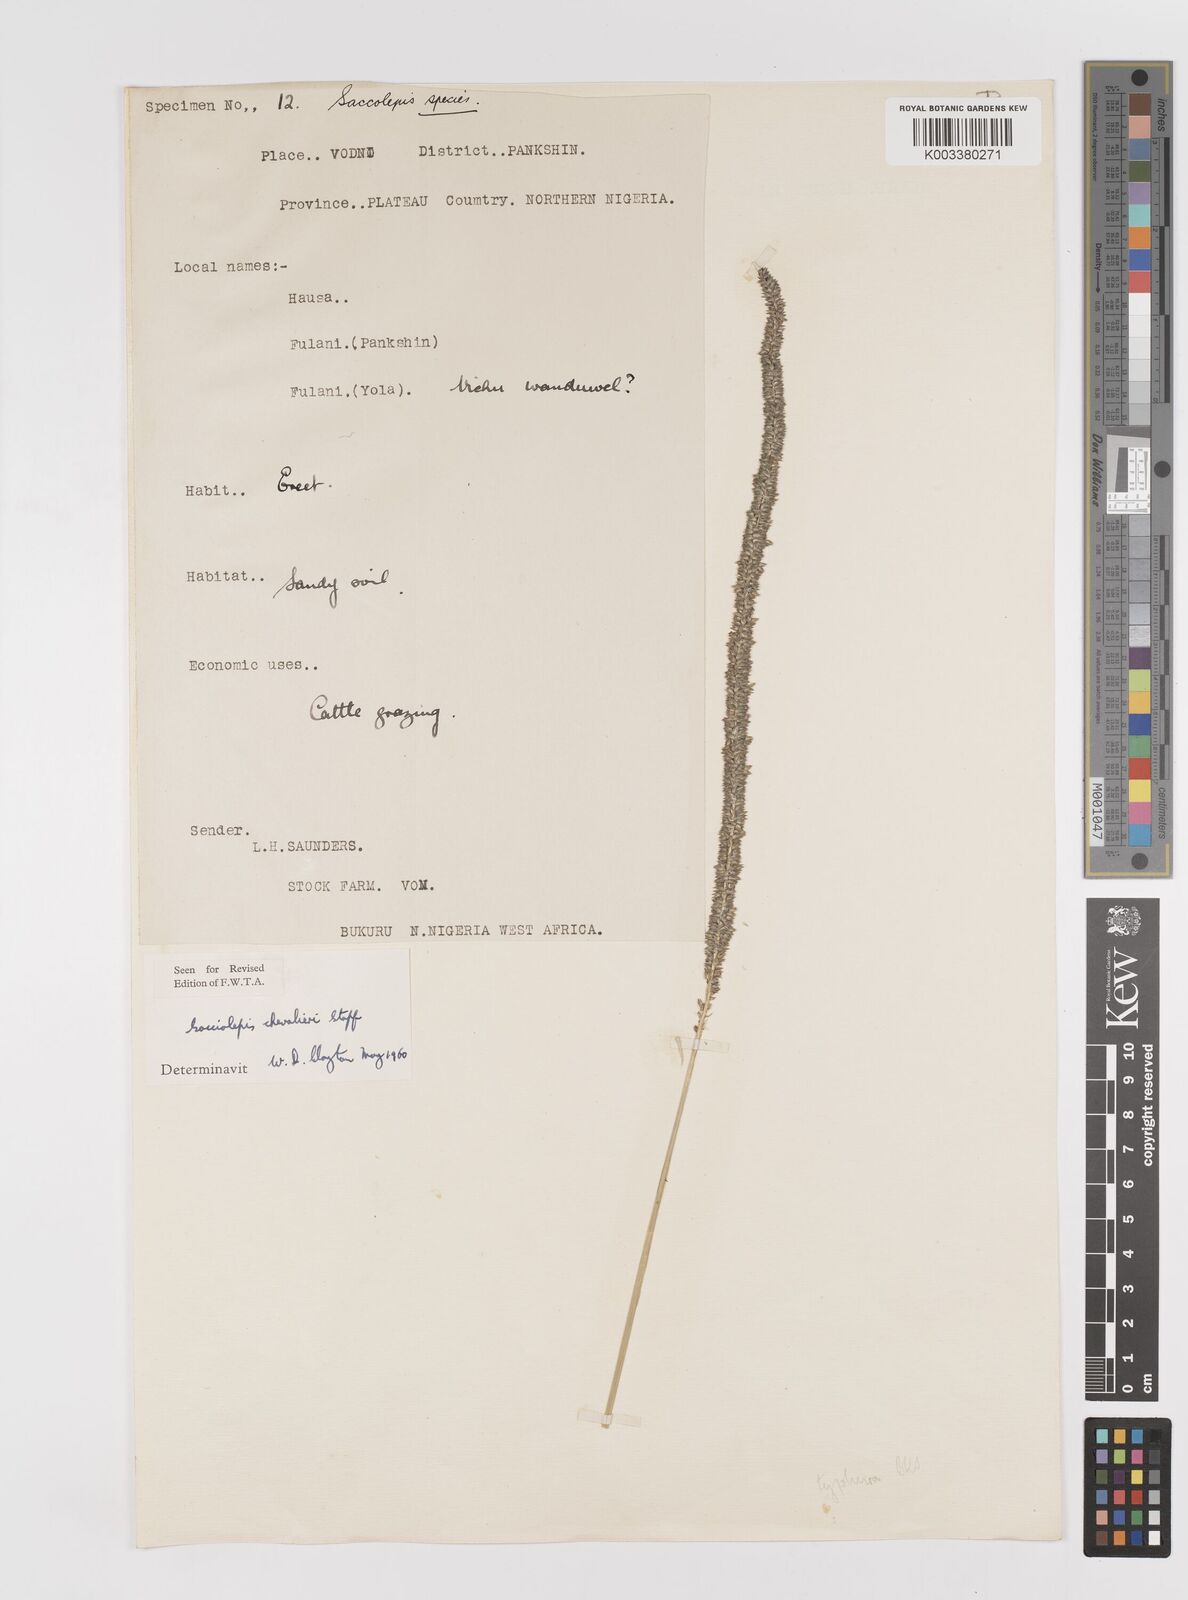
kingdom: Plantae
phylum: Tracheophyta
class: Liliopsida
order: Poales
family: Poaceae
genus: Sacciolepis
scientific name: Sacciolepis typhura
